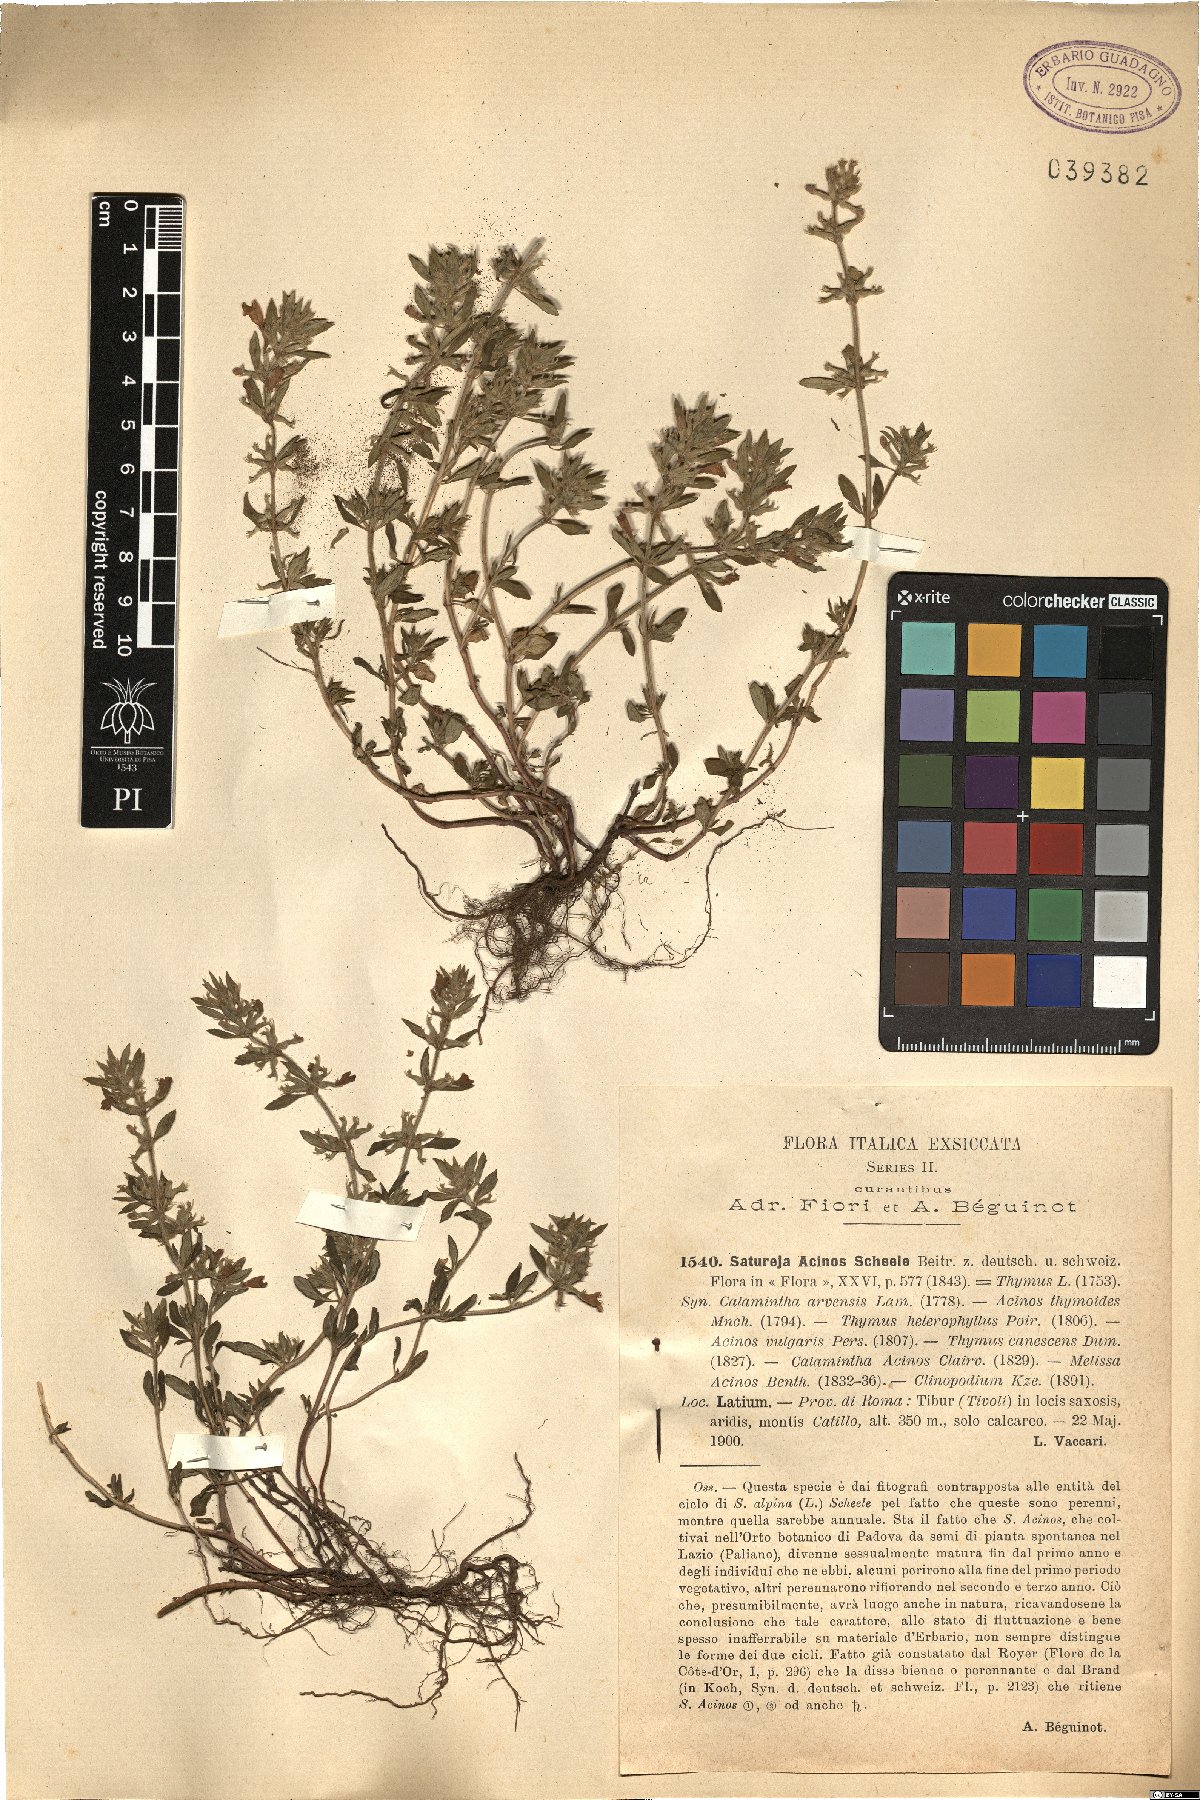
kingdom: Plantae
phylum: Tracheophyta
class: Magnoliopsida
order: Lamiales
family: Lamiaceae
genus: Clinopodium
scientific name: Clinopodium acinos
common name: Basil thyme
